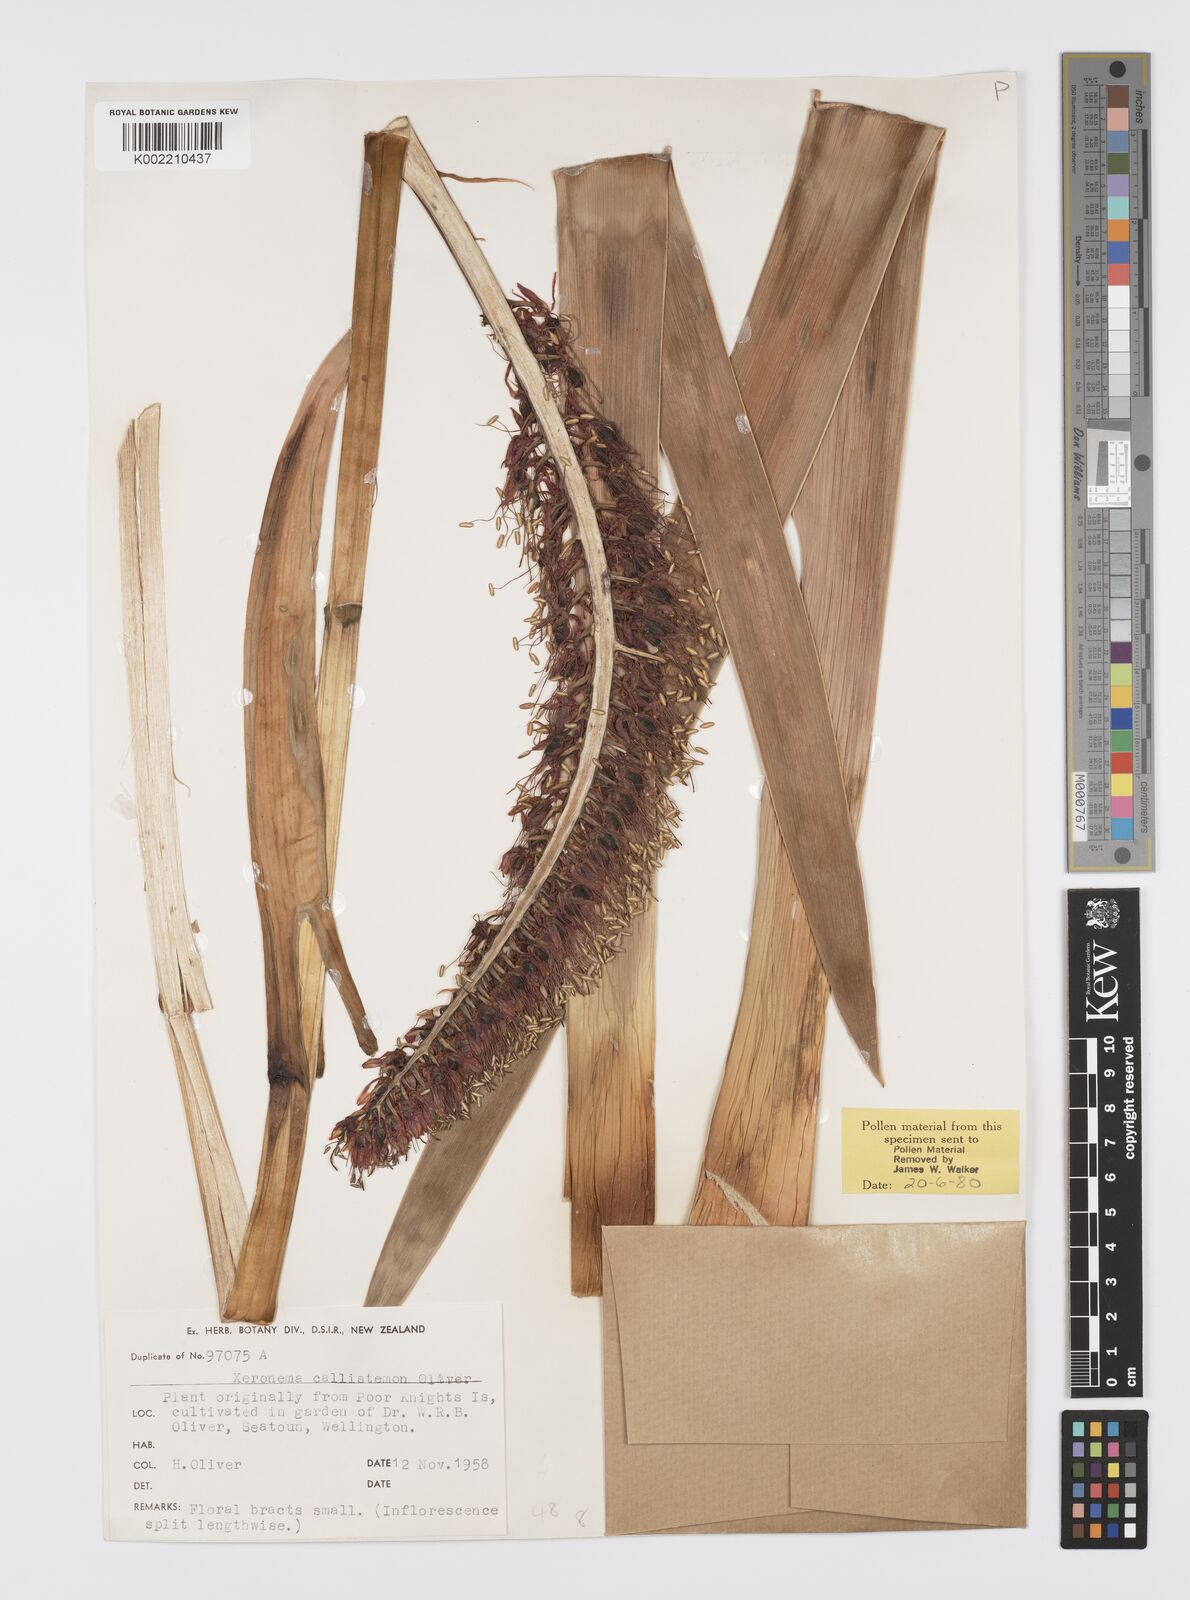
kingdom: Plantae
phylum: Tracheophyta
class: Liliopsida
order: Asparagales
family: Xeronemataceae
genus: Xeronema
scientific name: Xeronema callistemon
